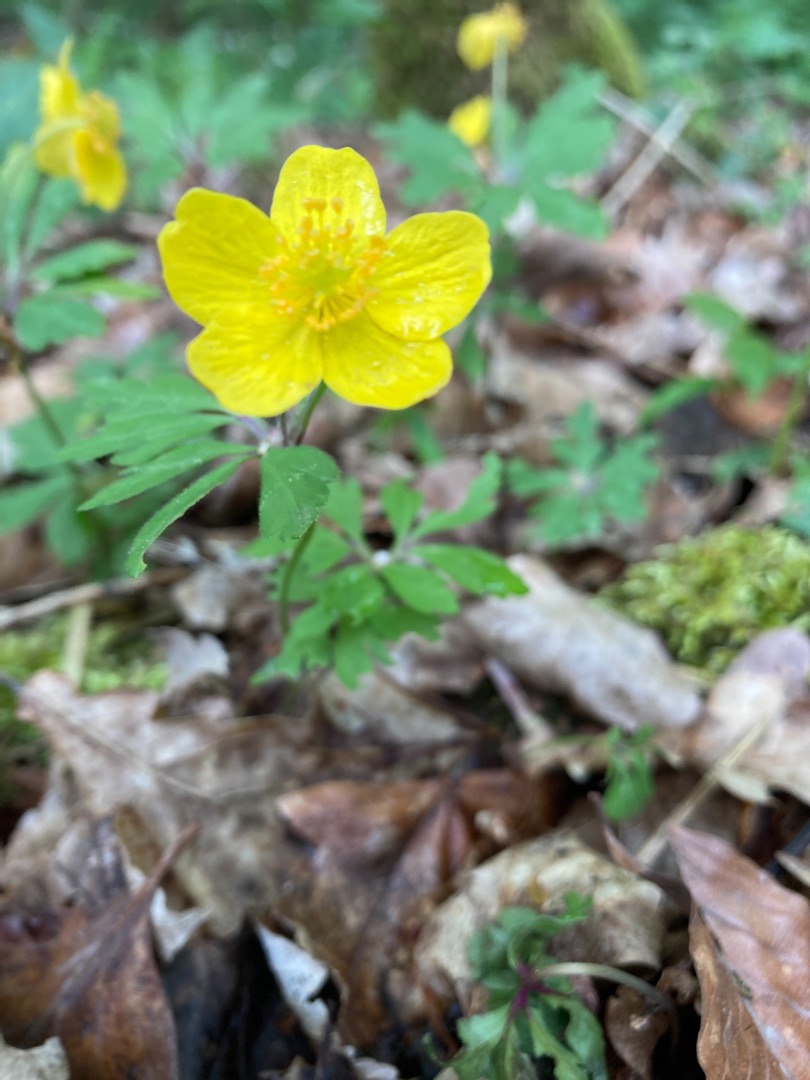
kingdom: Plantae
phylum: Tracheophyta
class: Magnoliopsida
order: Ranunculales
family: Ranunculaceae
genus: Anemone
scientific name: Anemone ranunculoides
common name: Gul anemone
